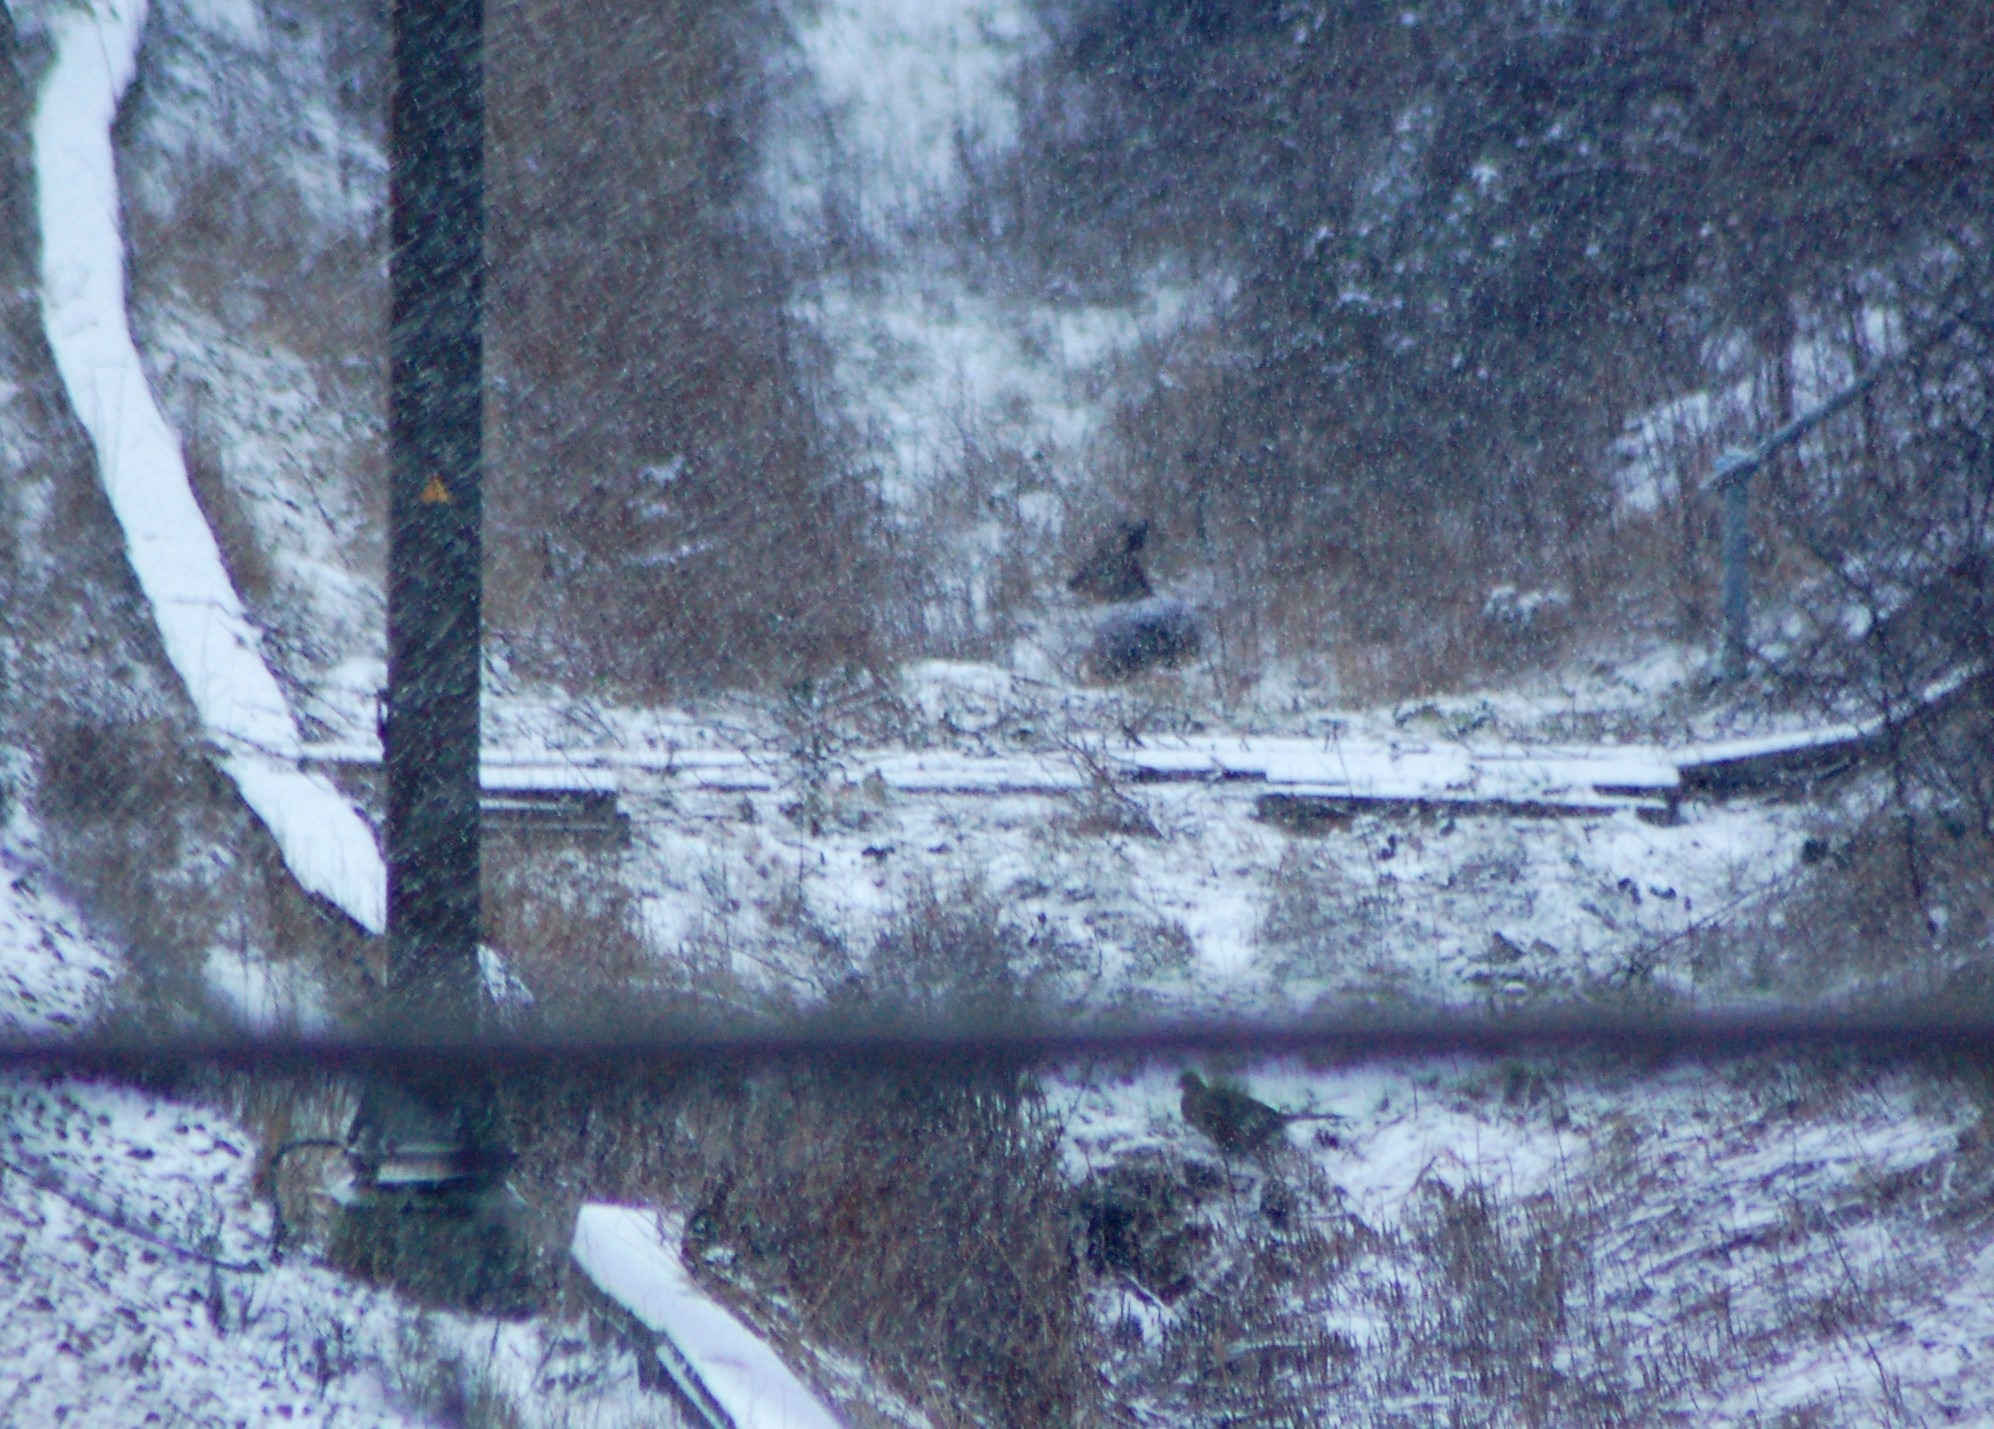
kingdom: Animalia
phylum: Chordata
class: Mammalia
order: Artiodactyla
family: Cervidae
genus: Capreolus
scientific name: Capreolus capreolus
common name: Rådyr
